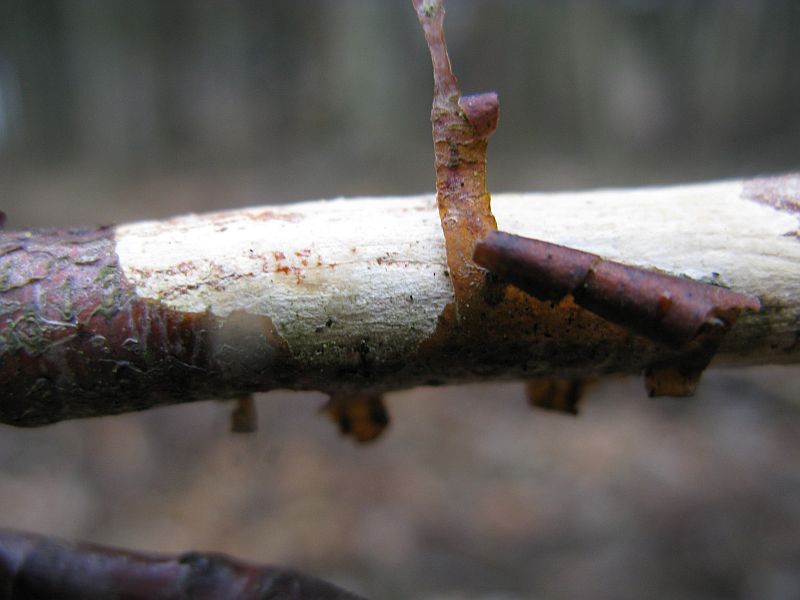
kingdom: Fungi
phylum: Basidiomycota
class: Agaricomycetes
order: Corticiales
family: Vuilleminiaceae
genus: Vuilleminia
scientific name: Vuilleminia comedens
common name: almindelig barksprænger
